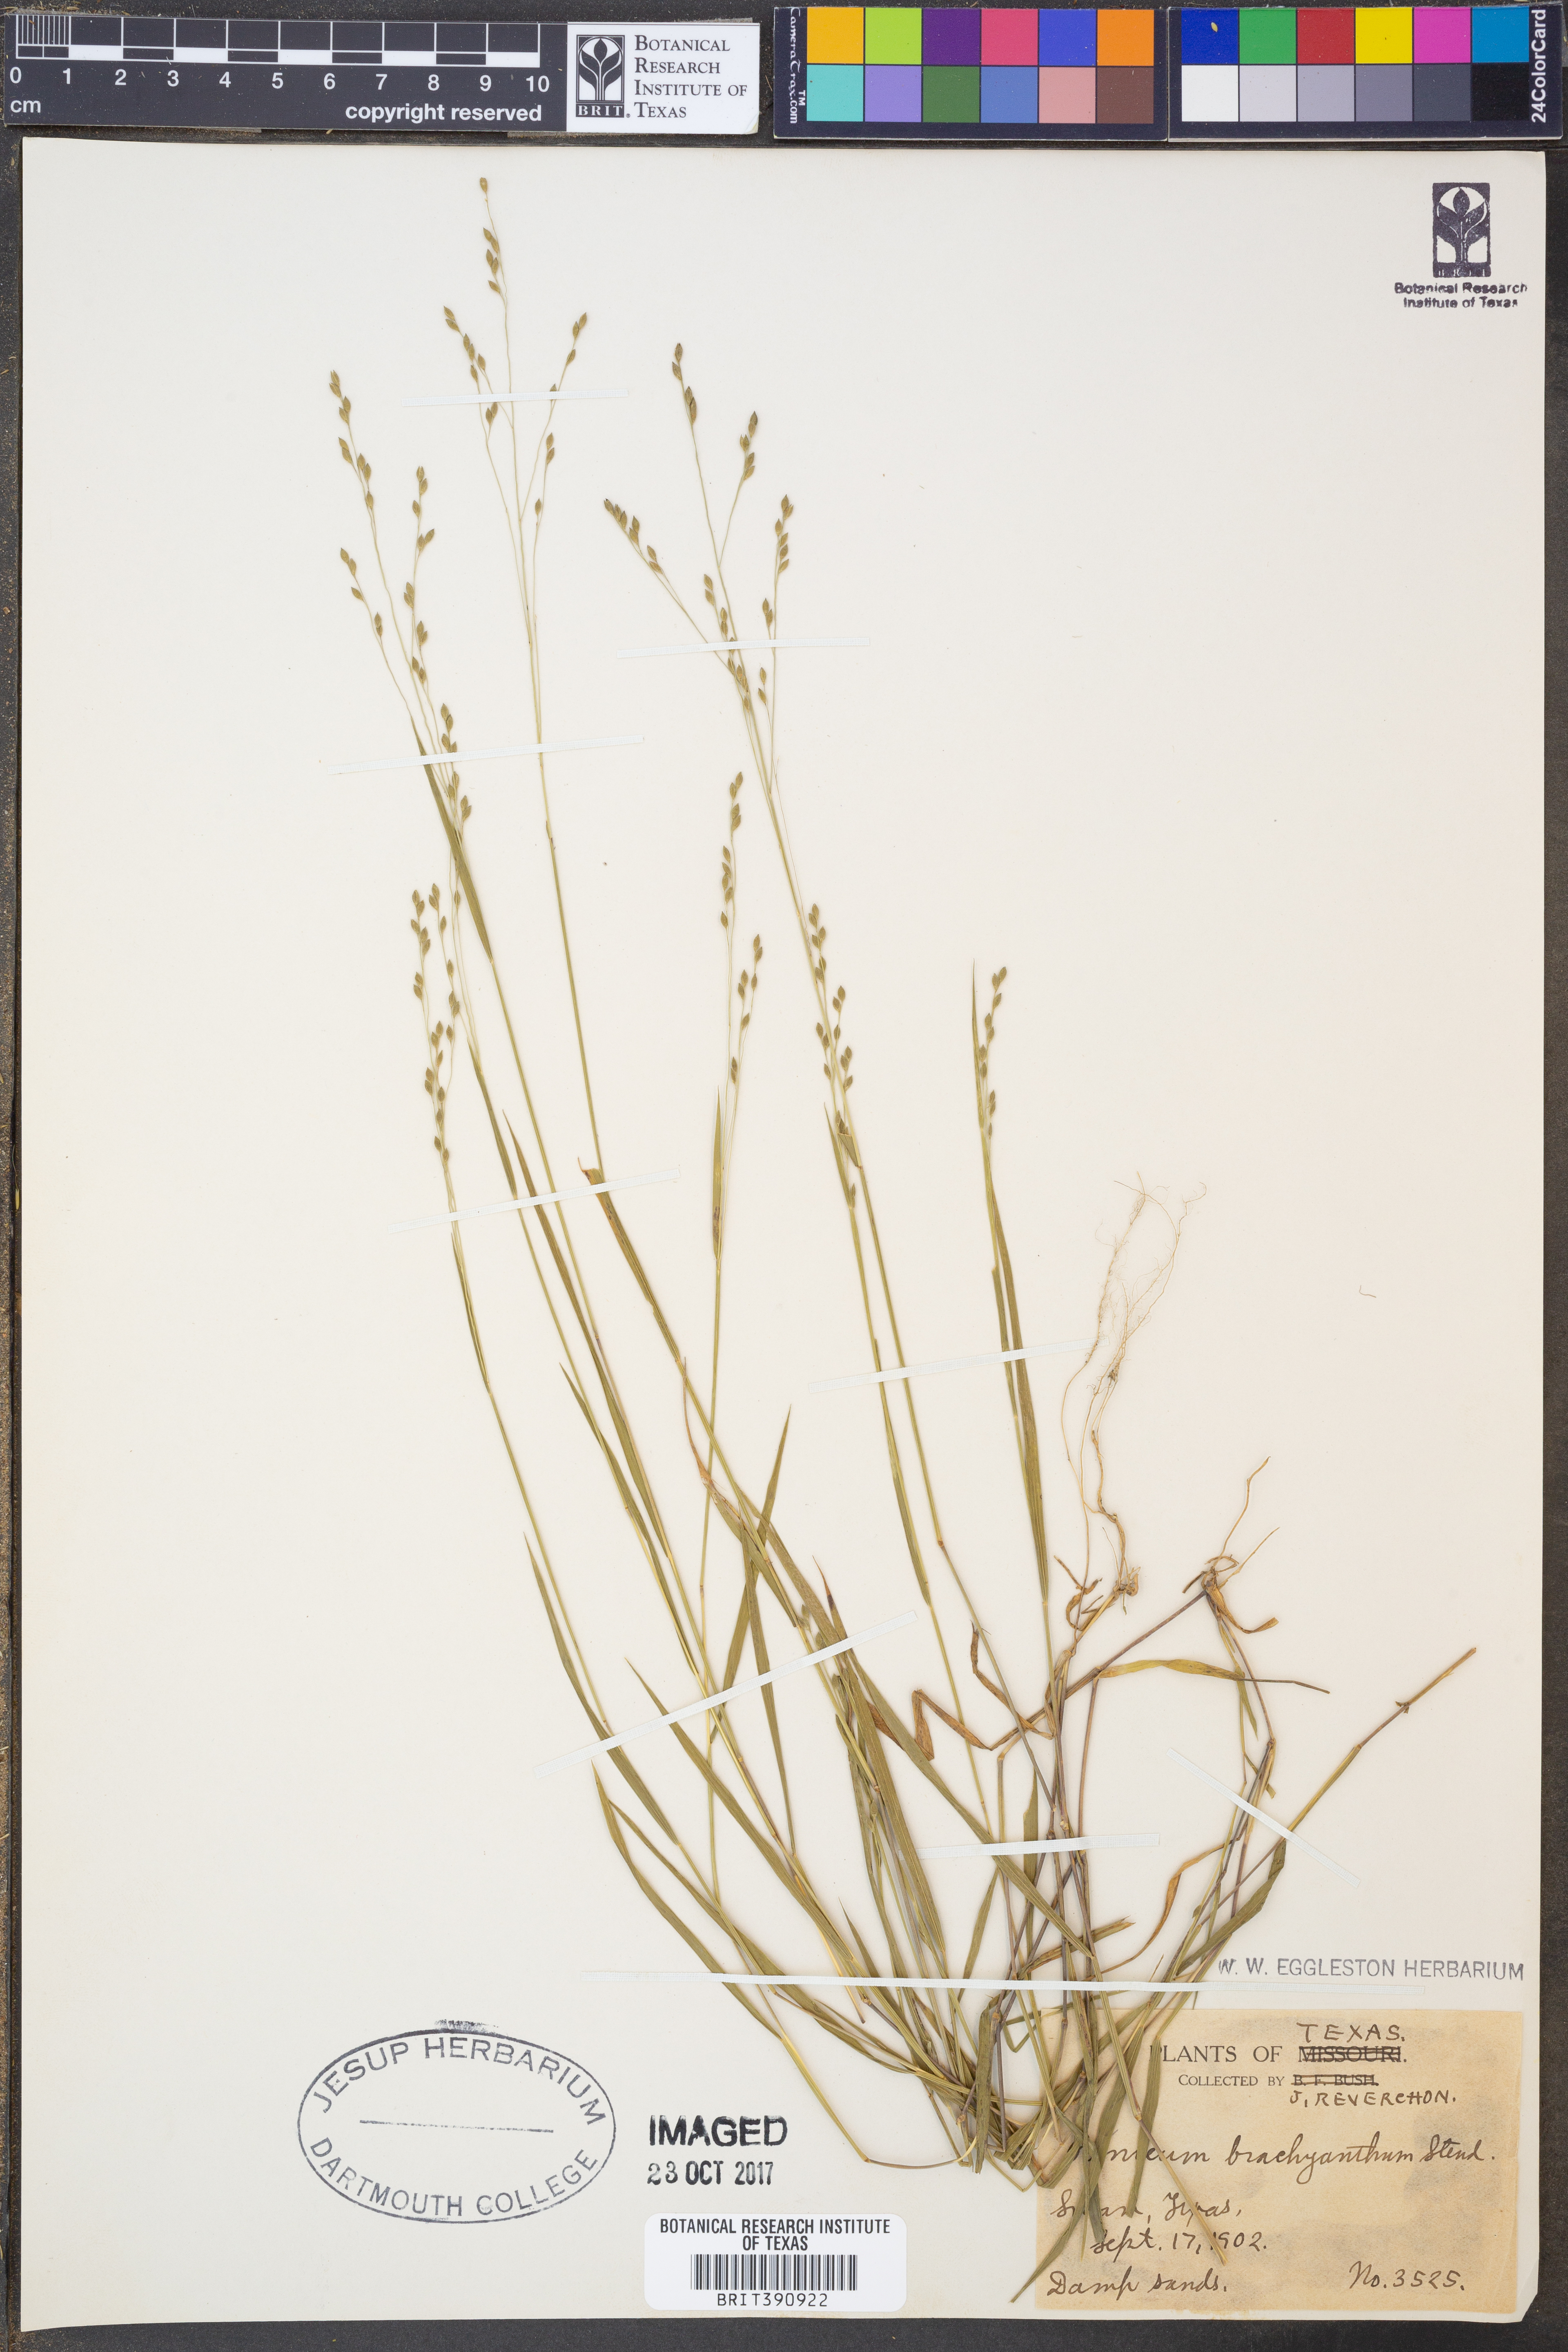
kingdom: Plantae
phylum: Tracheophyta
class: Liliopsida
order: Poales
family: Poaceae
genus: Kellochloa
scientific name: Kellochloa brachyantha
